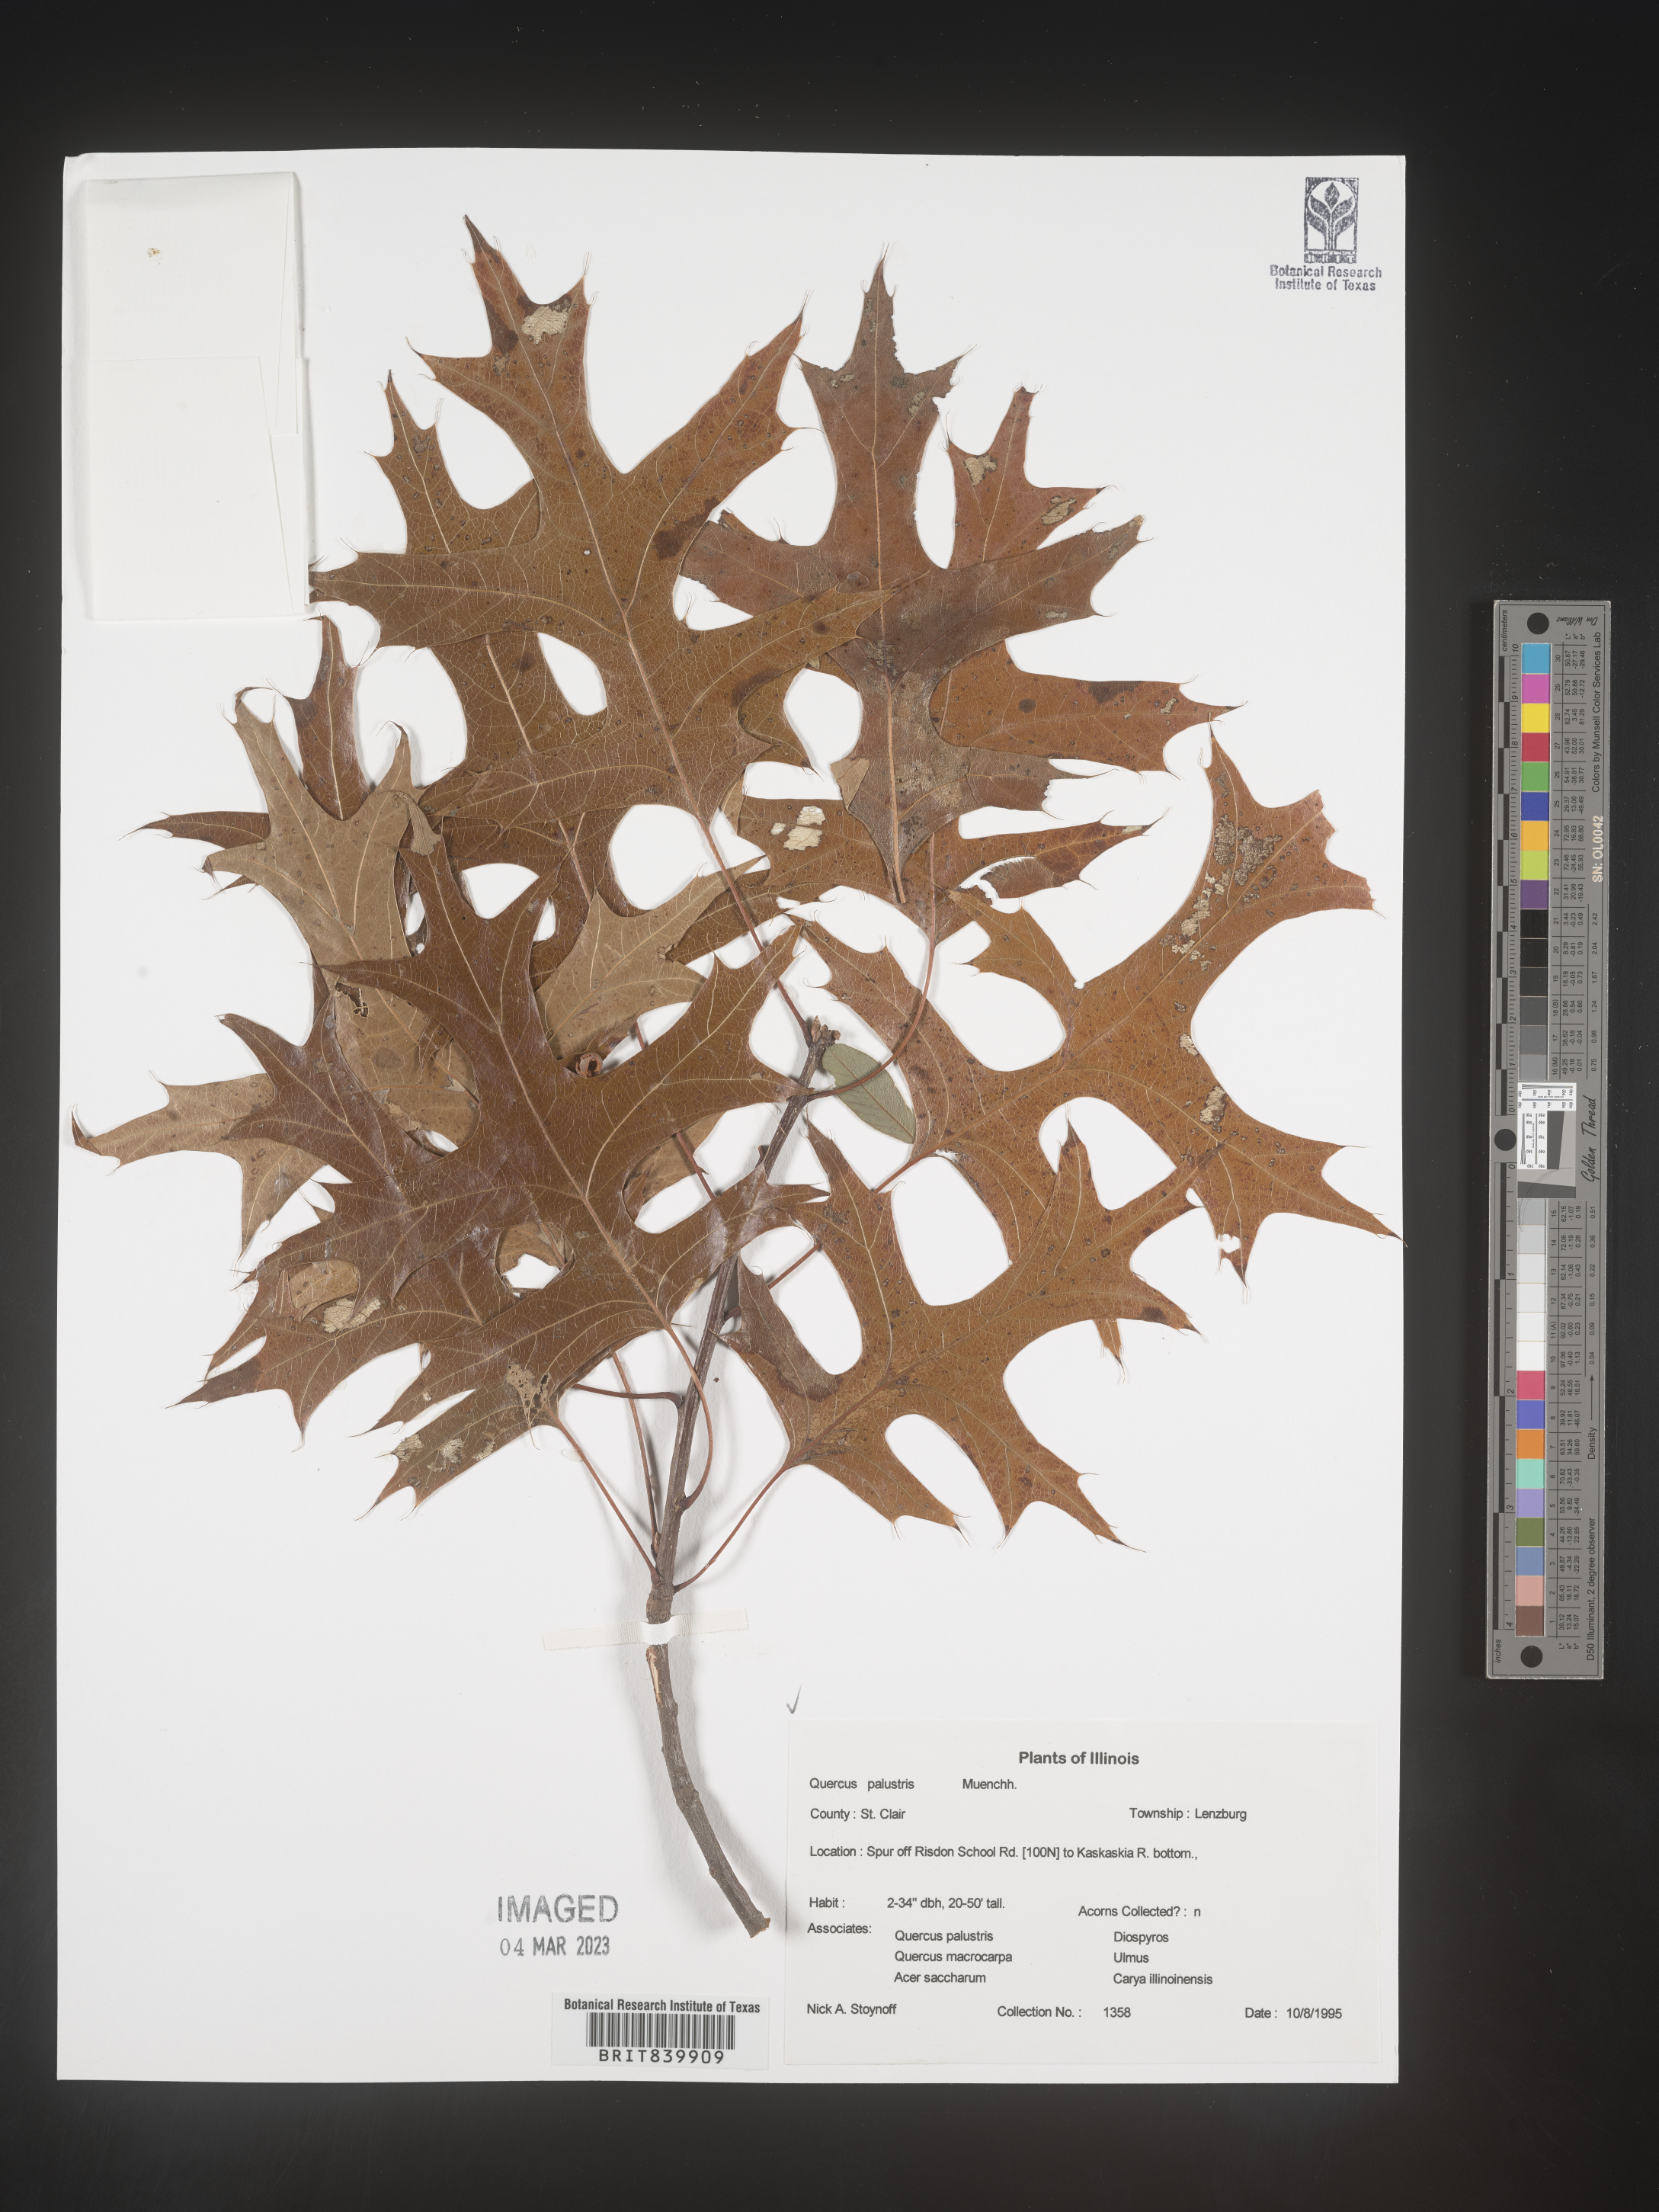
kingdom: Plantae
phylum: Tracheophyta
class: Magnoliopsida
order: Fagales
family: Fagaceae
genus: Quercus
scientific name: Quercus palustris
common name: Pin oak
